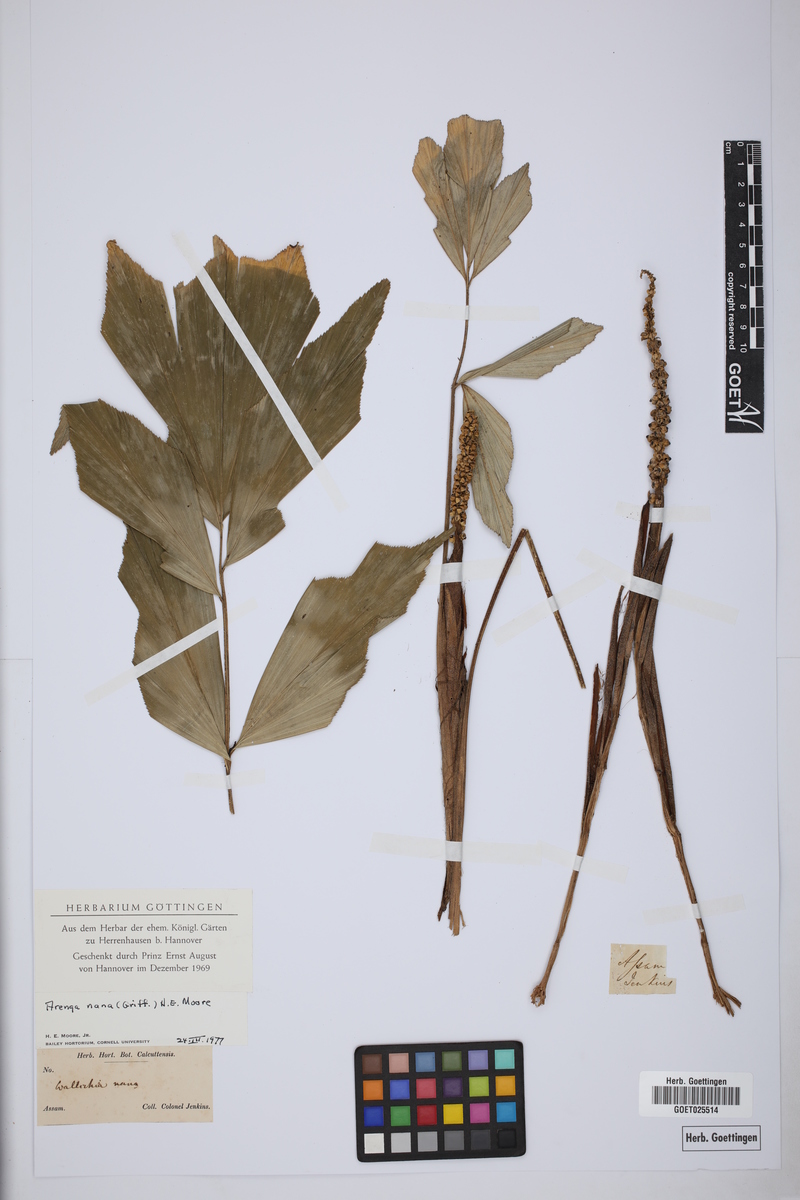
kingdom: Plantae
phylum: Tracheophyta
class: Liliopsida
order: Arecales
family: Arecaceae
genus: Wallichia
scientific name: Wallichia nana
